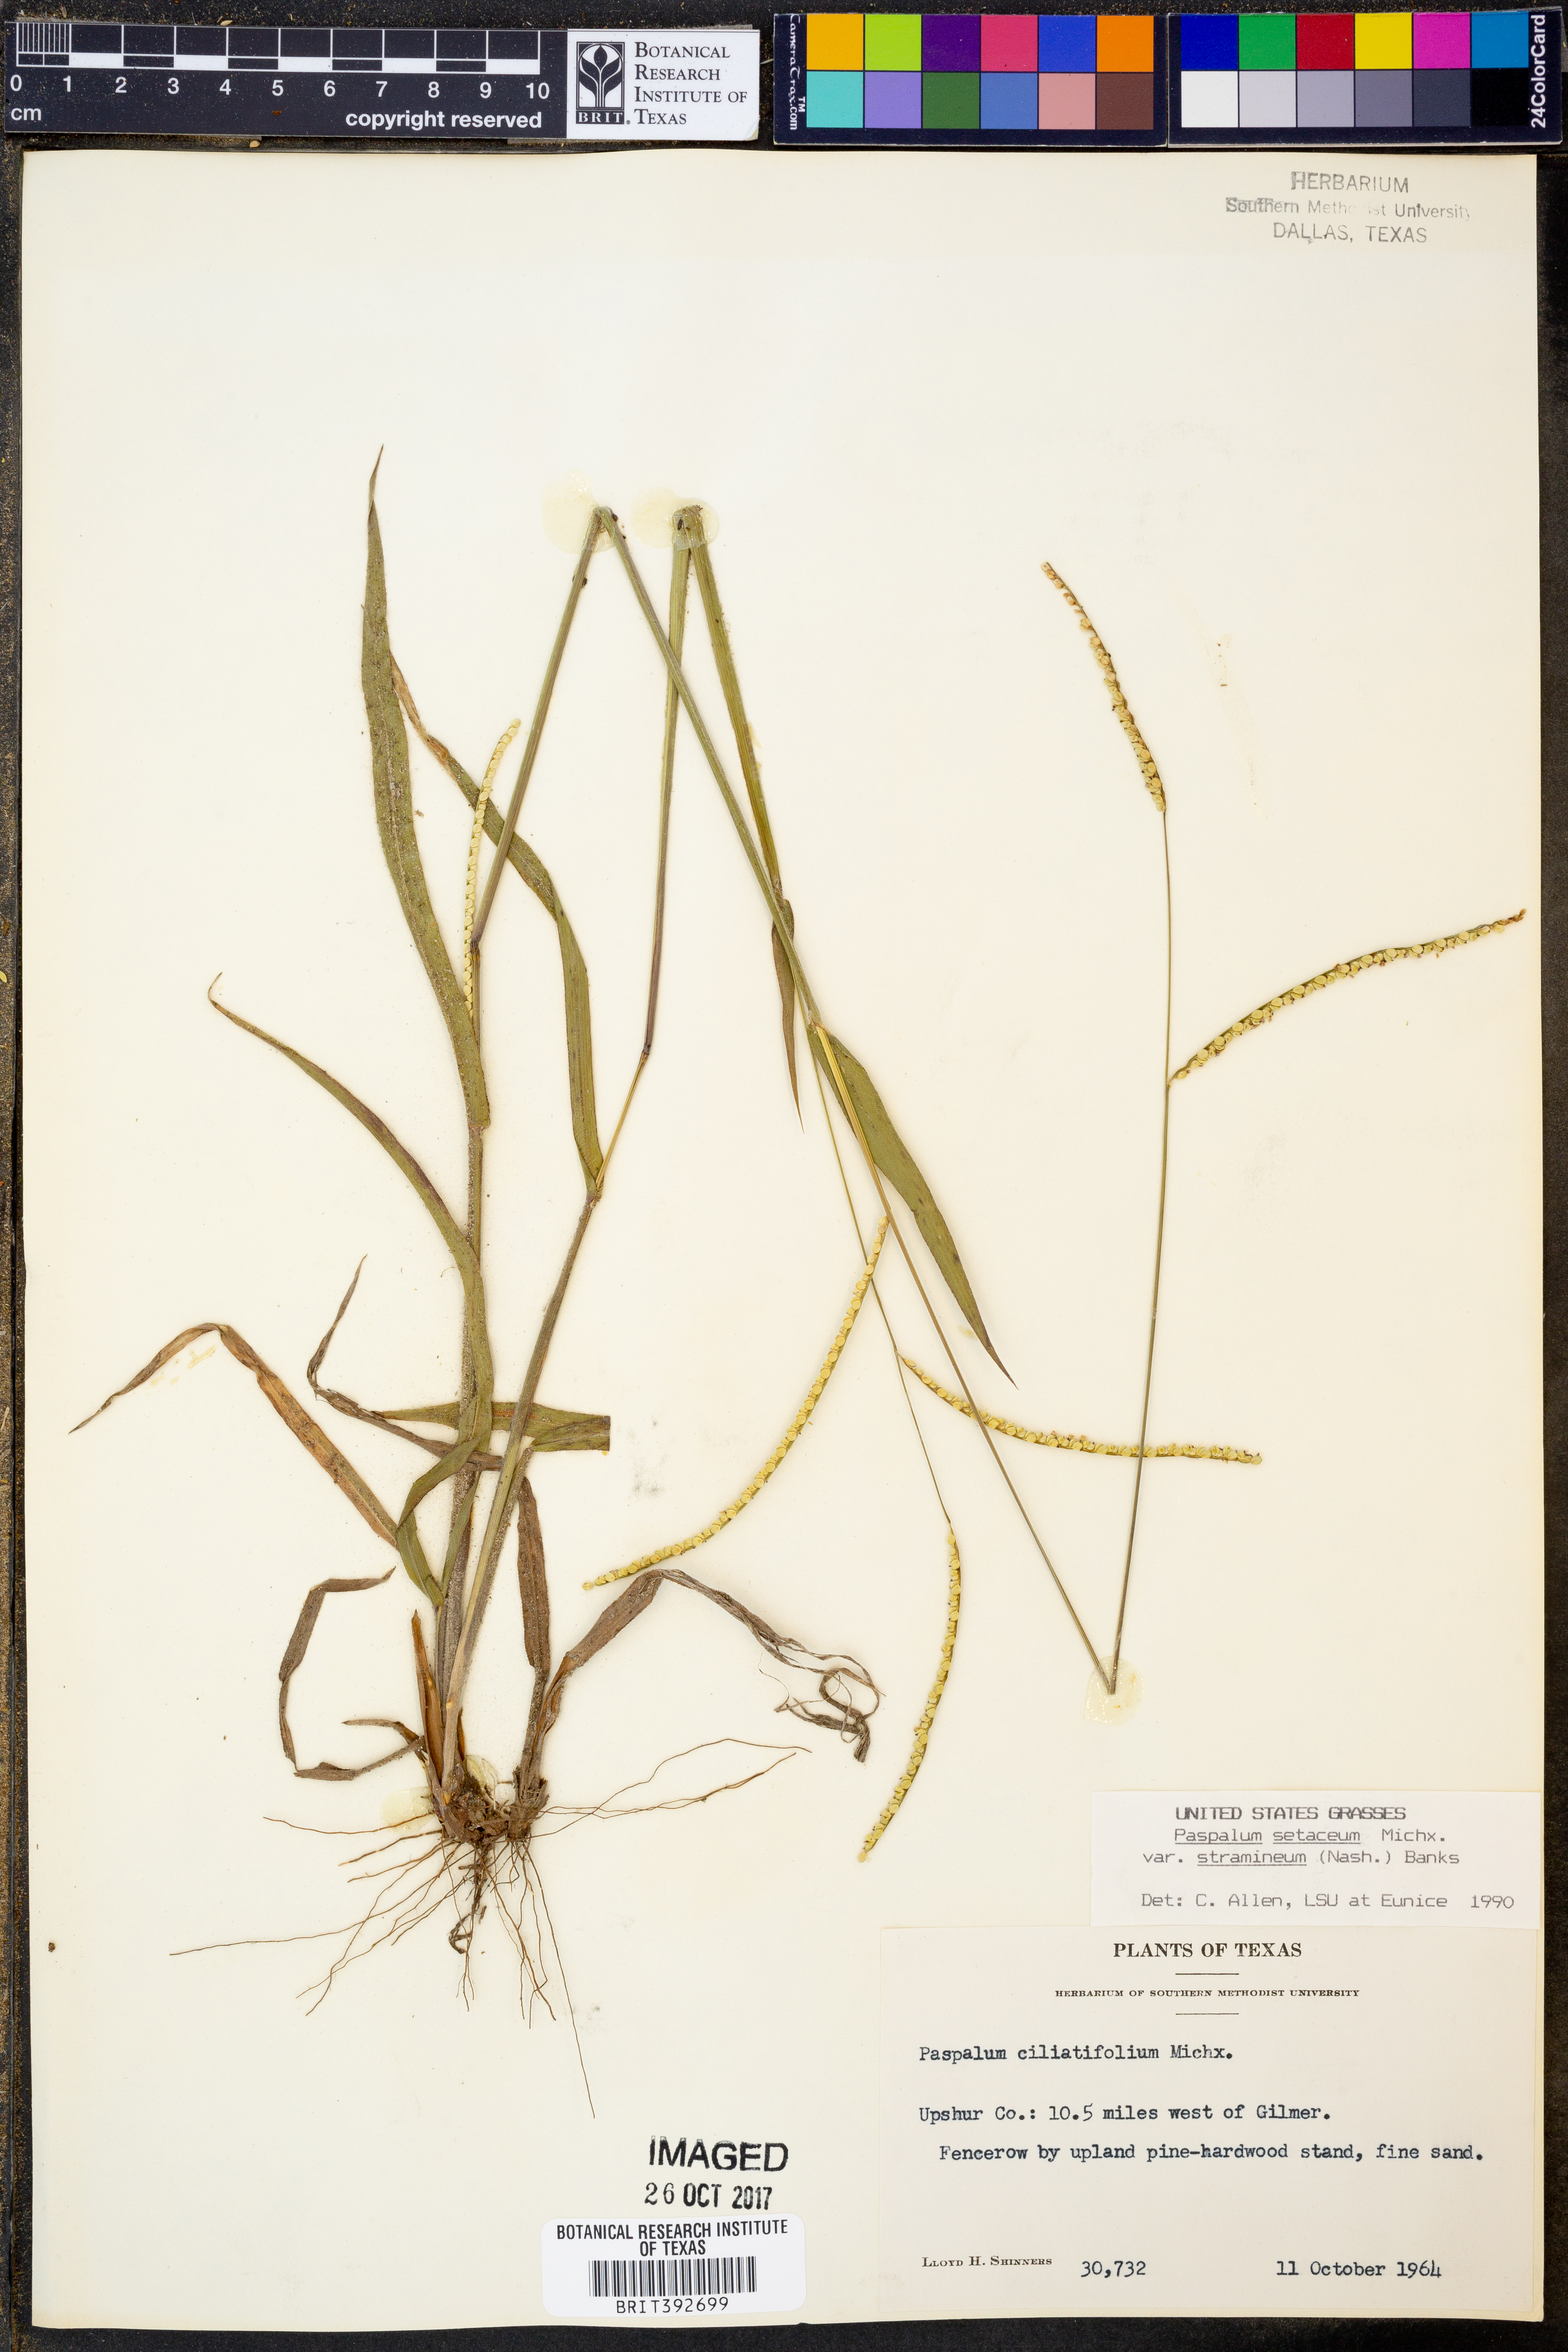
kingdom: Plantae
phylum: Tracheophyta
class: Liliopsida
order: Poales
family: Poaceae
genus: Paspalum
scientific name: Paspalum setaceum
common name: Slender paspalum
